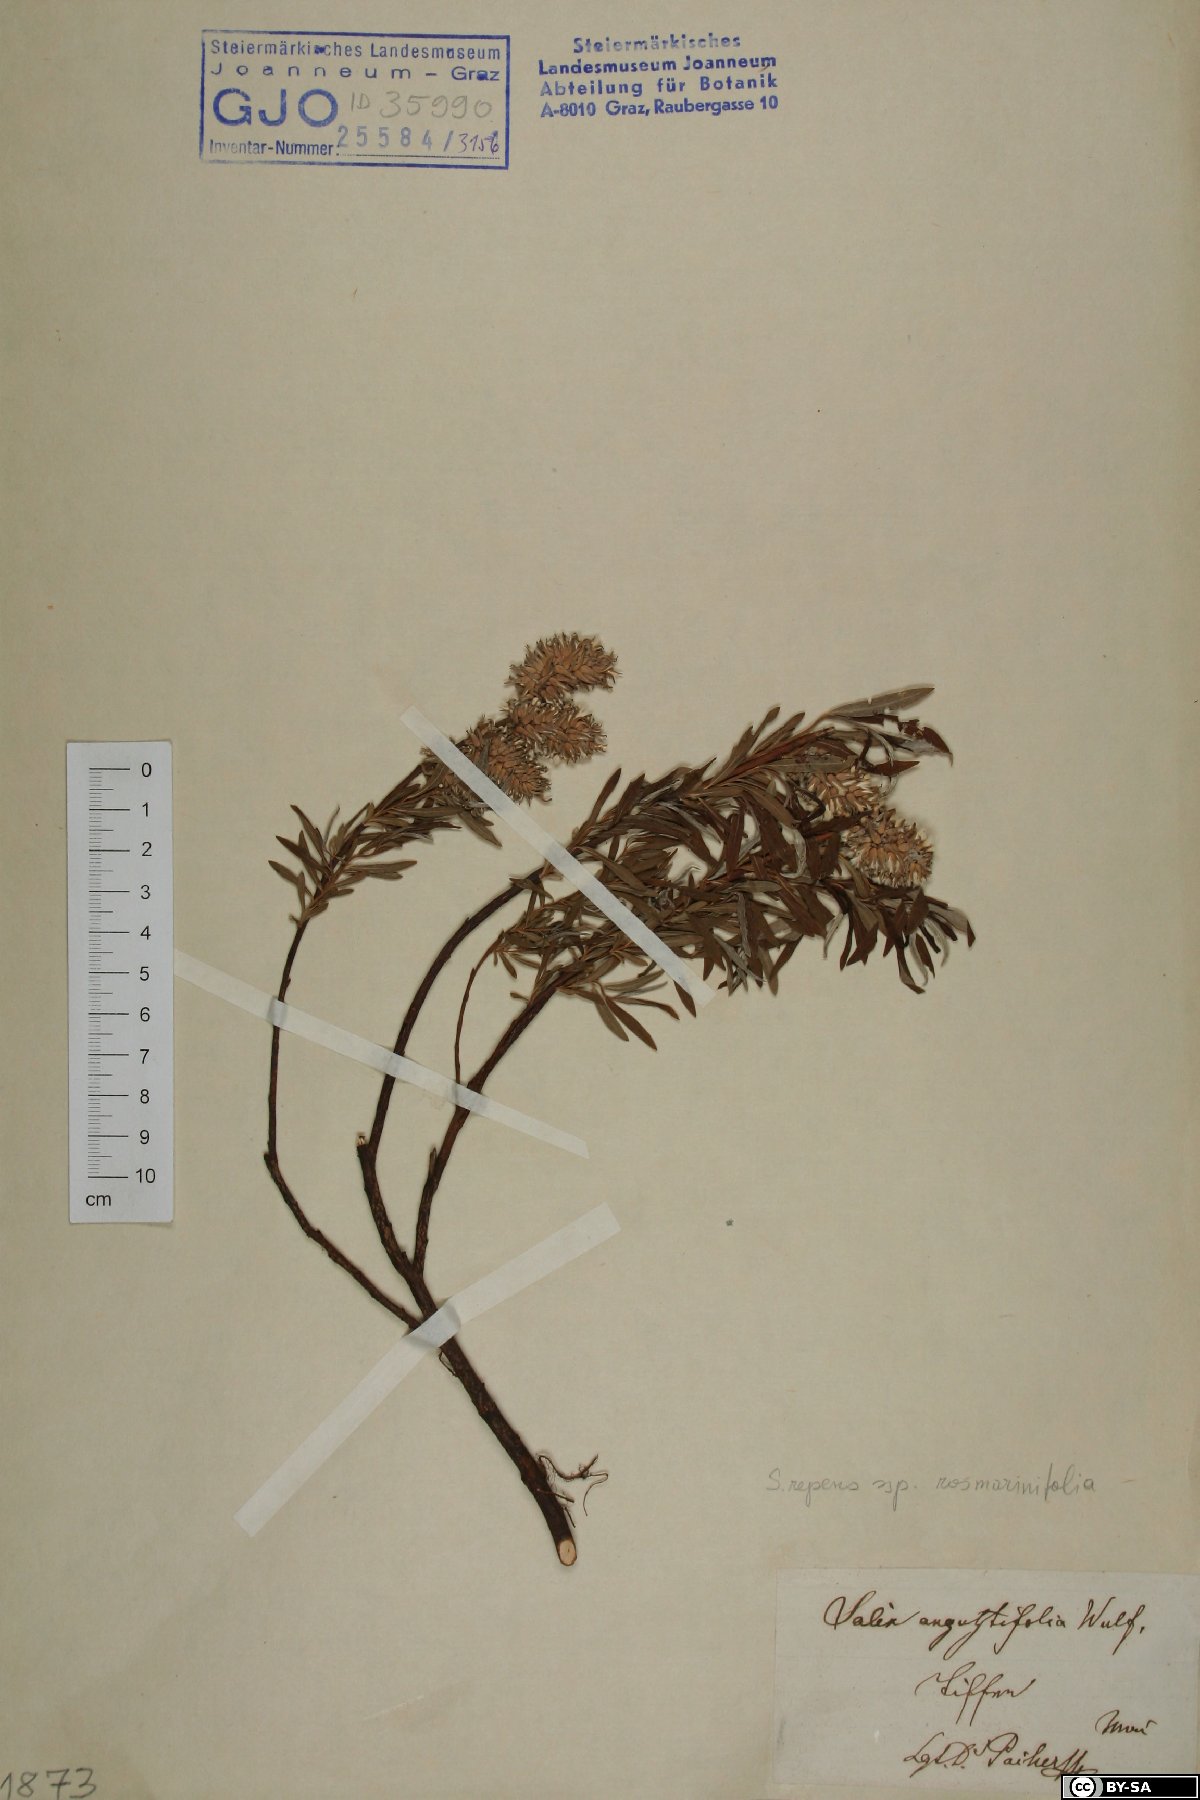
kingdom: Plantae
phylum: Tracheophyta
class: Magnoliopsida
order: Malpighiales
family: Salicaceae
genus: Salix
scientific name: Salix rosmarinifolia
